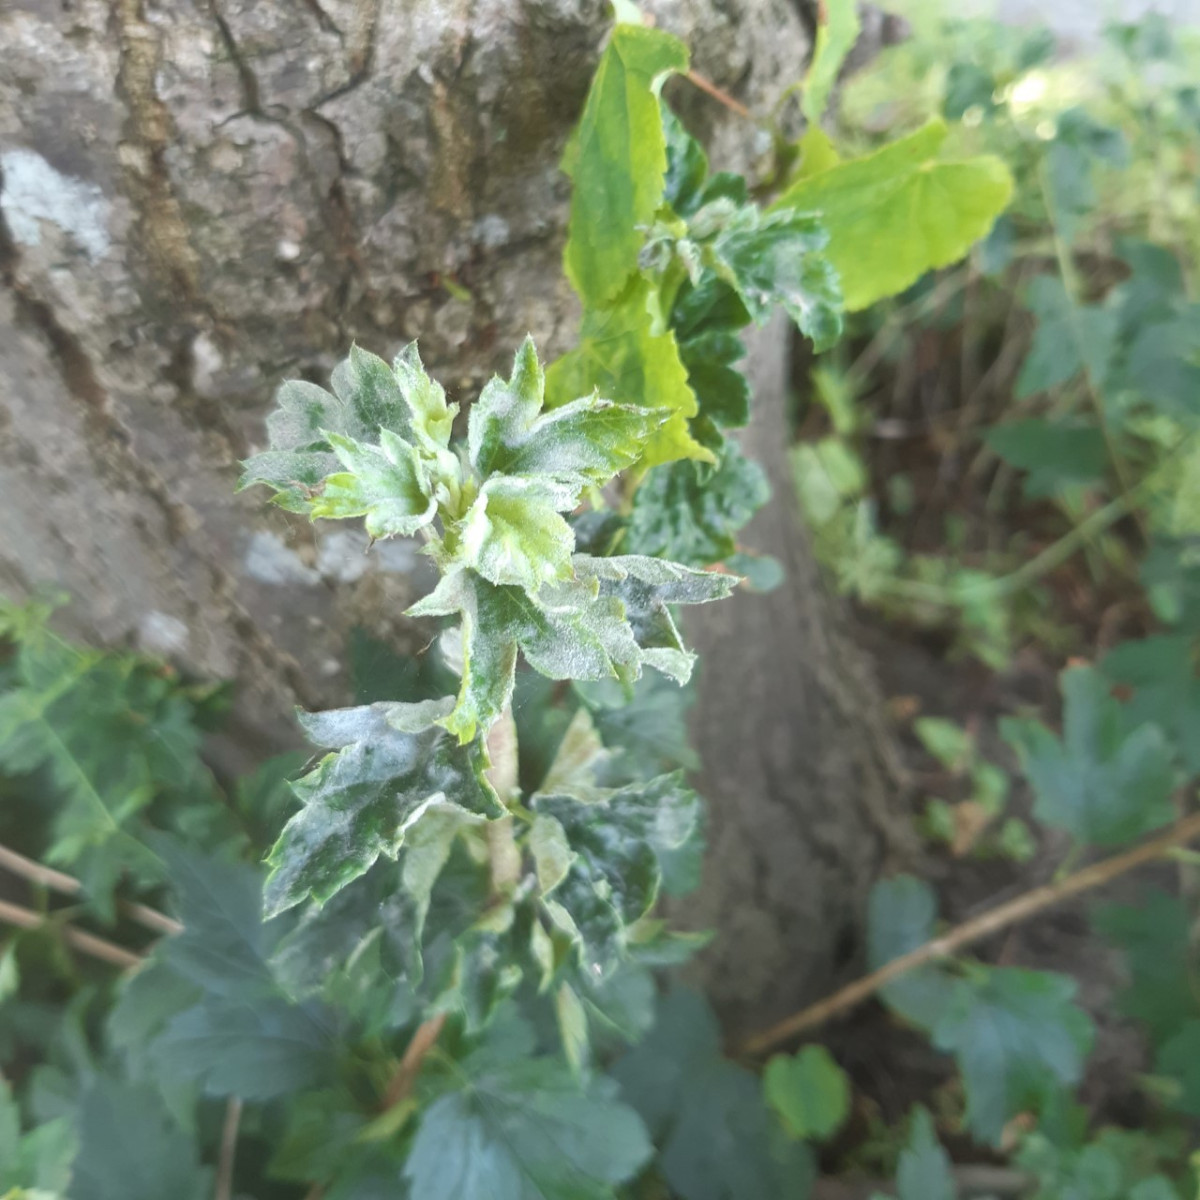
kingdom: Fungi
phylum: Ascomycota
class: Leotiomycetes
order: Helotiales
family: Erysiphaceae
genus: Podosphaera
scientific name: Podosphaera mors-uvae
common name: American gooseberry mildew
